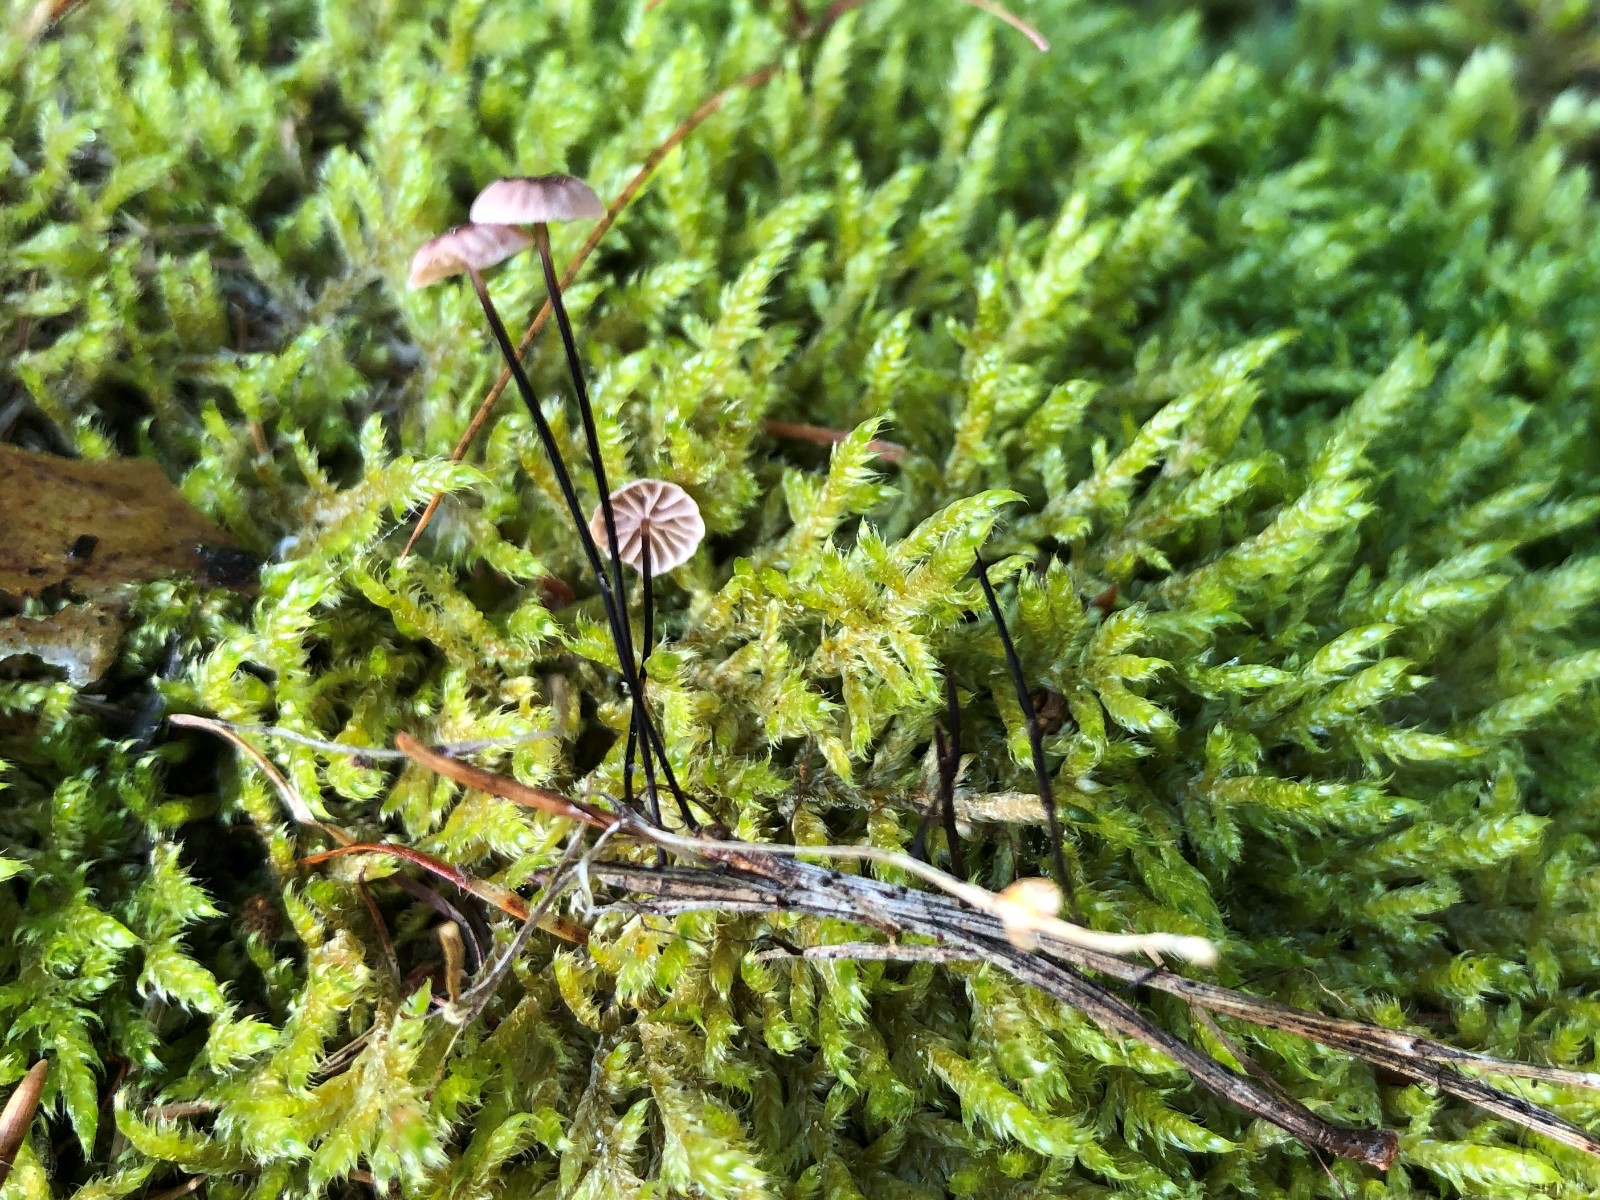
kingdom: Fungi
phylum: Basidiomycota
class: Agaricomycetes
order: Agaricales
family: Omphalotaceae
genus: Gymnopus
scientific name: Gymnopus
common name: fladhat
